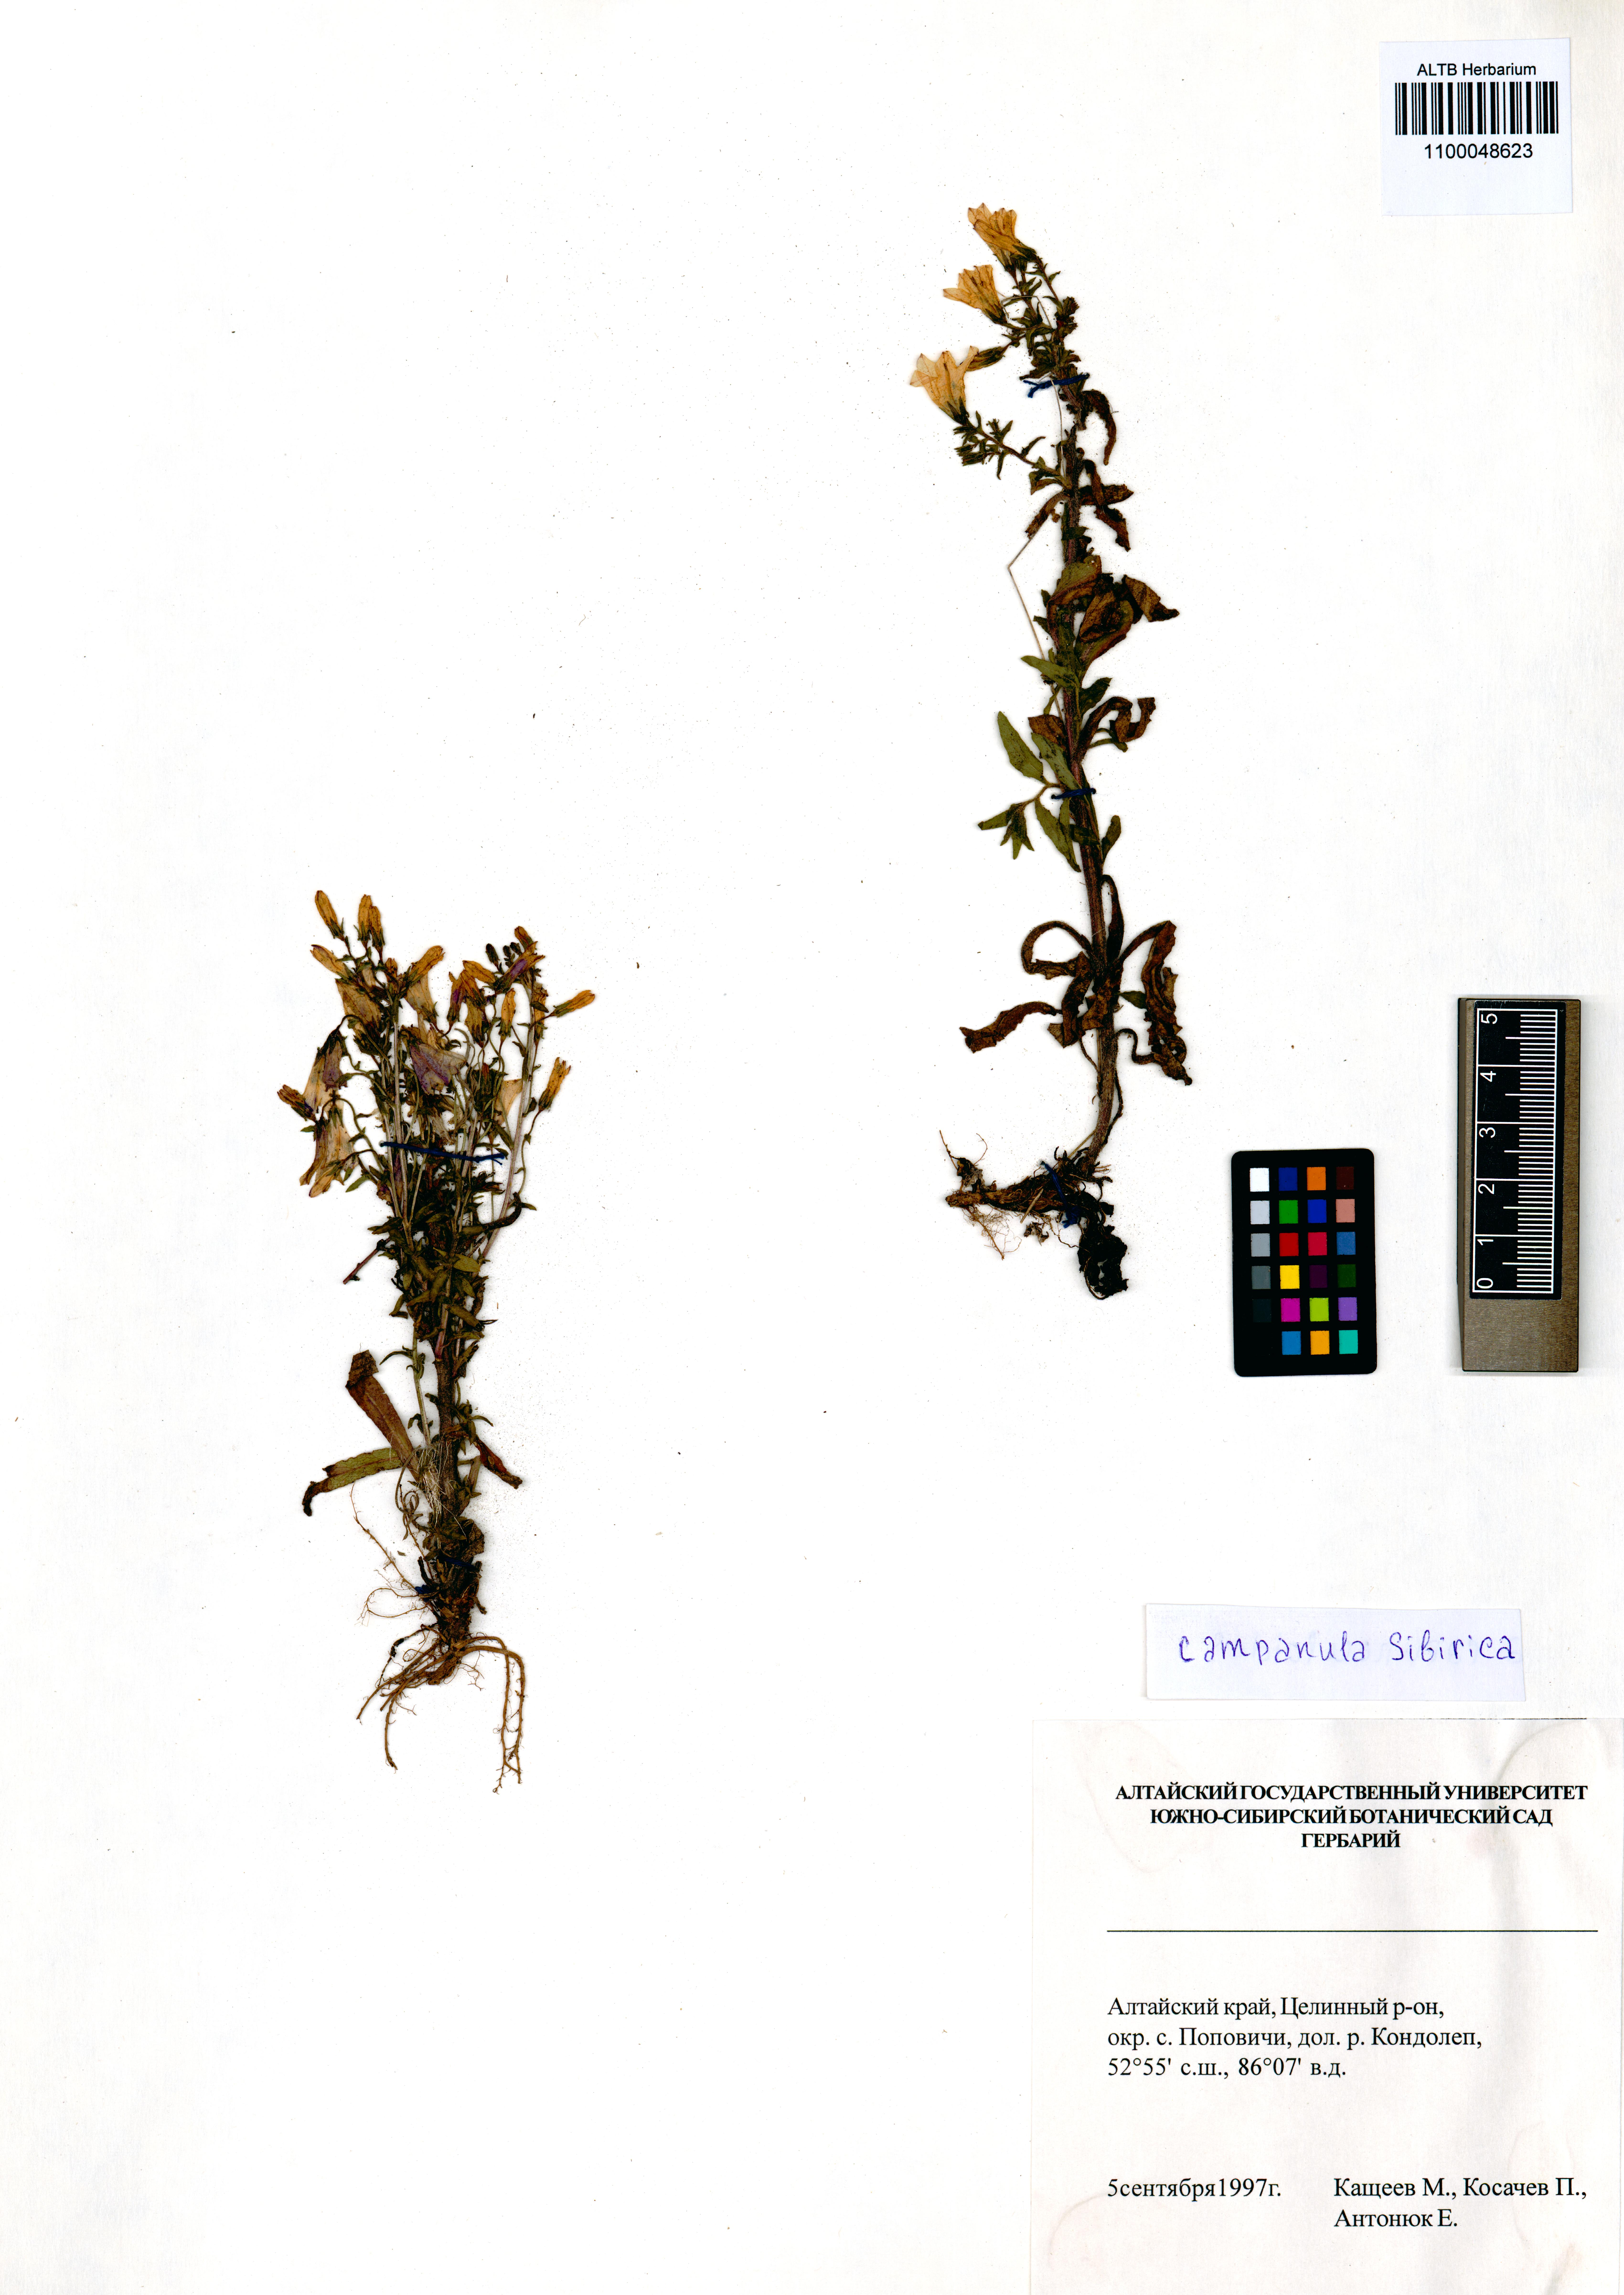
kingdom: Plantae
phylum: Tracheophyta
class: Magnoliopsida
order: Asterales
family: Campanulaceae
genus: Campanula
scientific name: Campanula sibirica
